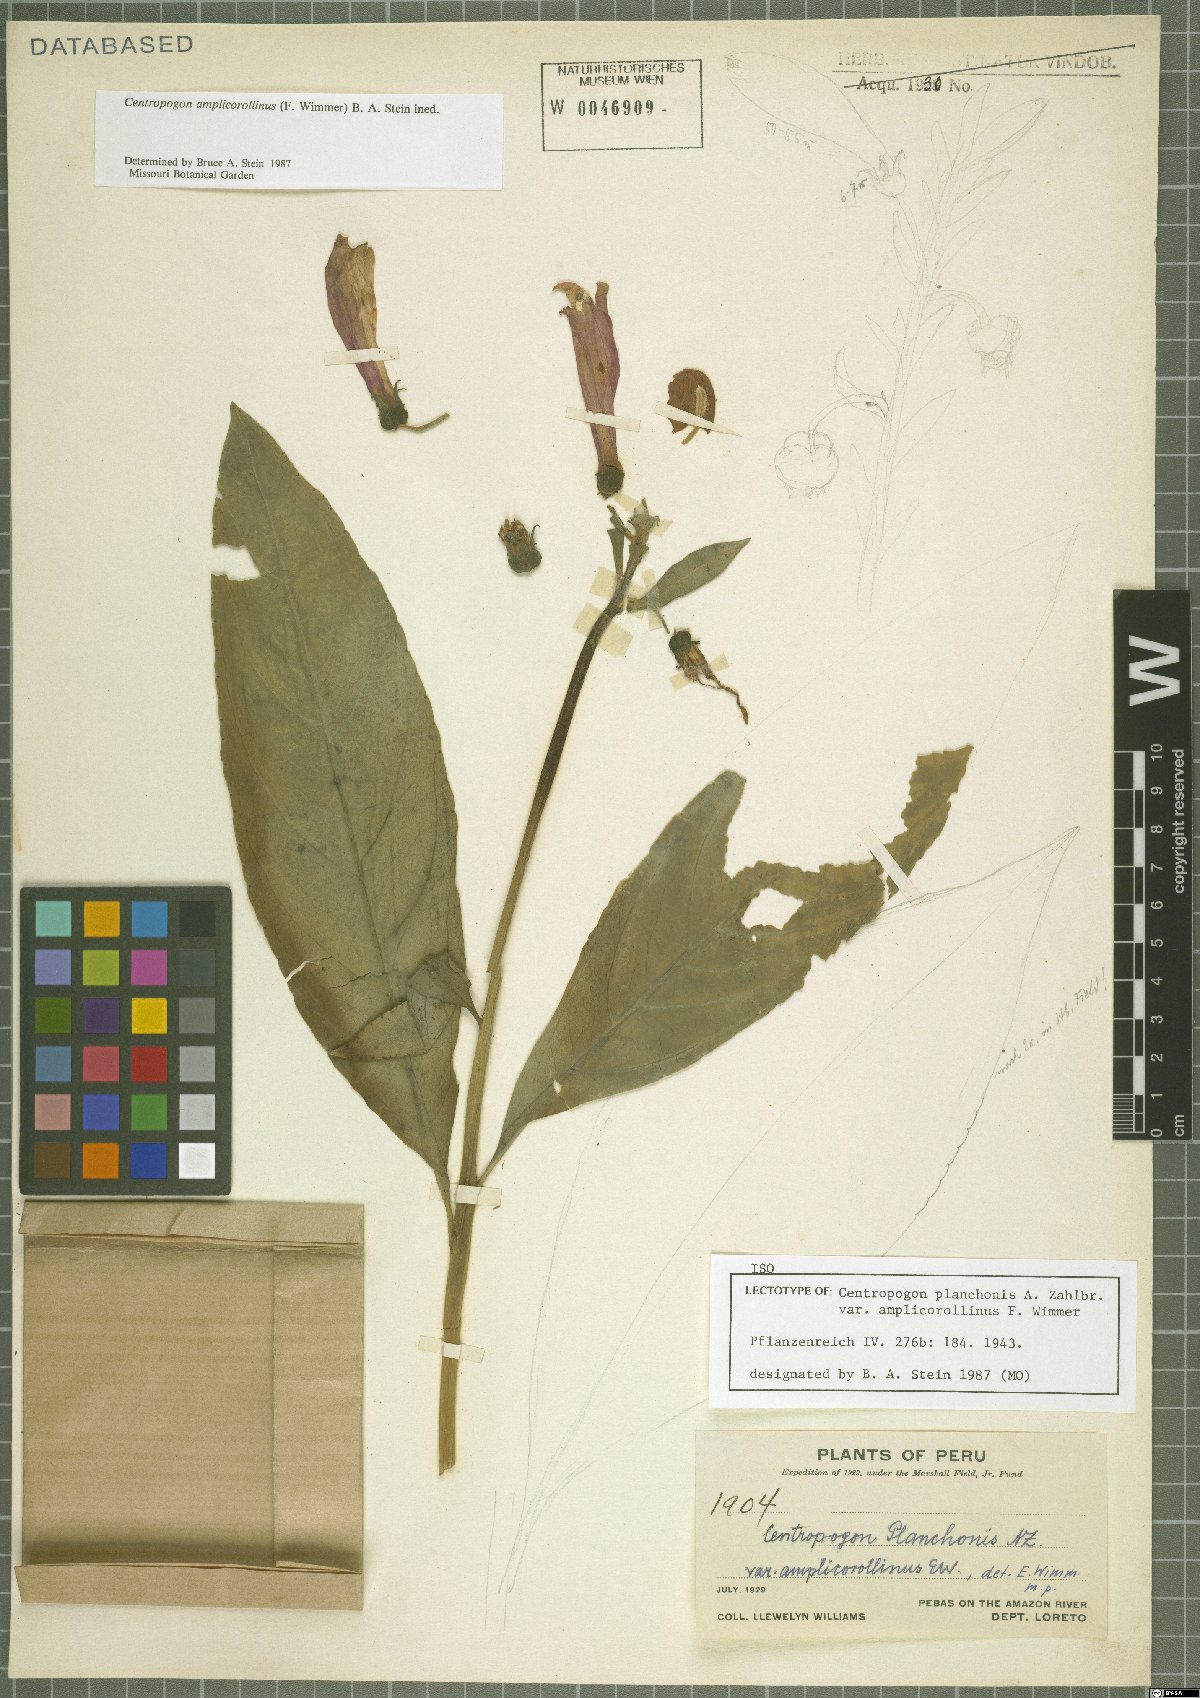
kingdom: Plantae
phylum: Tracheophyta
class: Magnoliopsida
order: Asterales
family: Campanulaceae
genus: Centropogon
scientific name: Centropogon amplicorollinus
